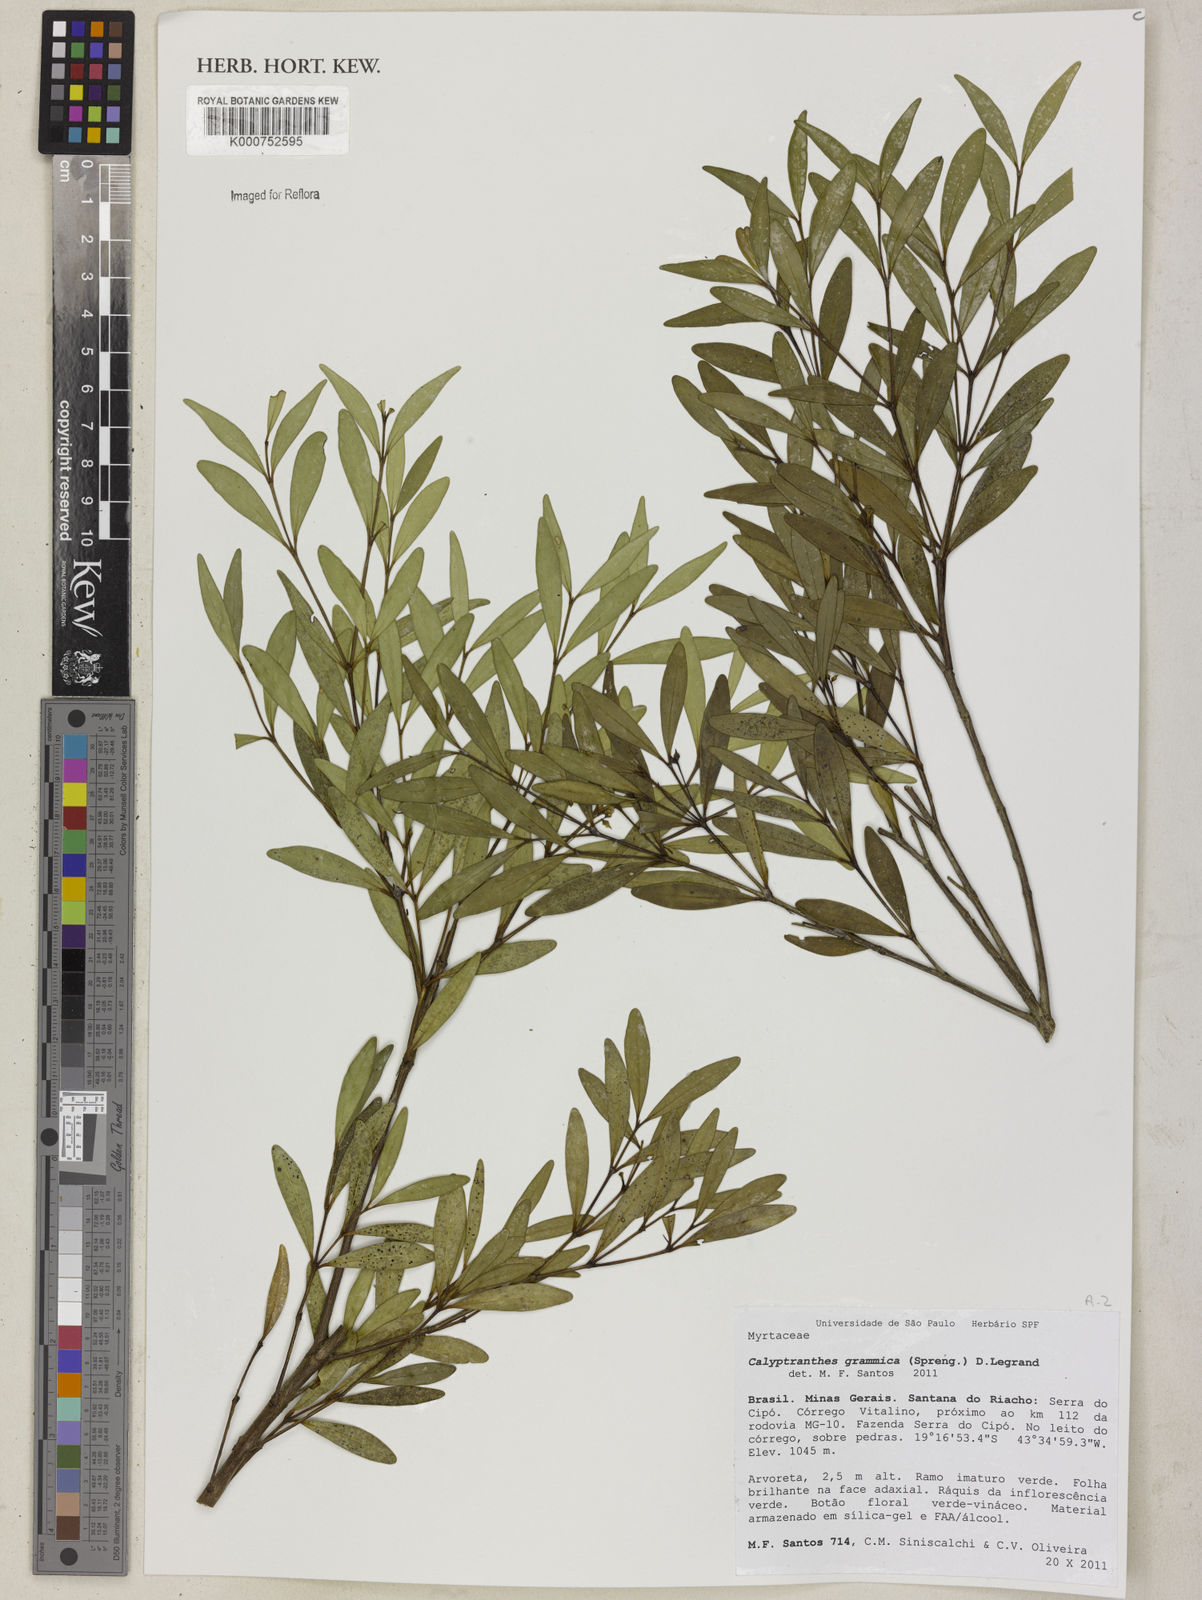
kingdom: Plantae
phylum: Tracheophyta
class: Magnoliopsida
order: Myrtales
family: Myrtaceae
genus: Myrcia
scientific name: Myrcia grammica
